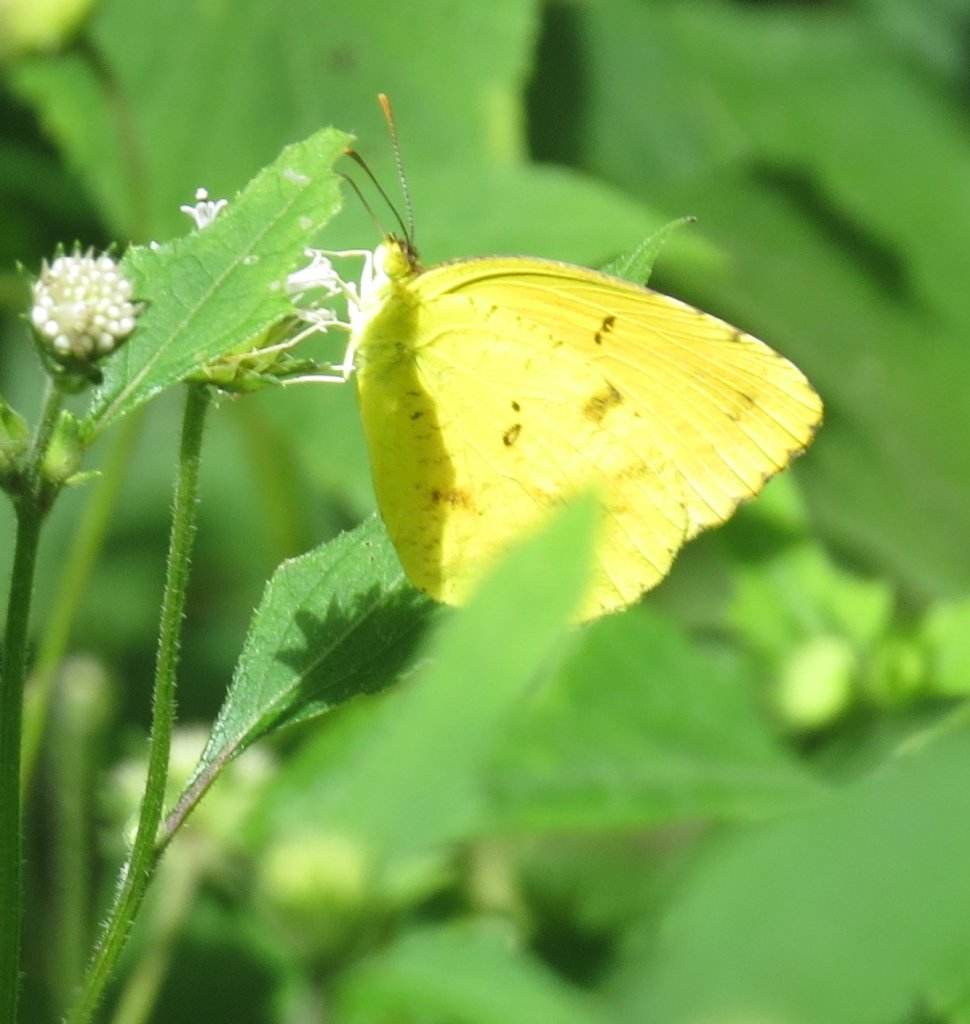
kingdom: Animalia
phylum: Arthropoda
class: Insecta
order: Lepidoptera
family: Pieridae
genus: Abaeis
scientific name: Abaeis nicippe
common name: Sleepy Orange
